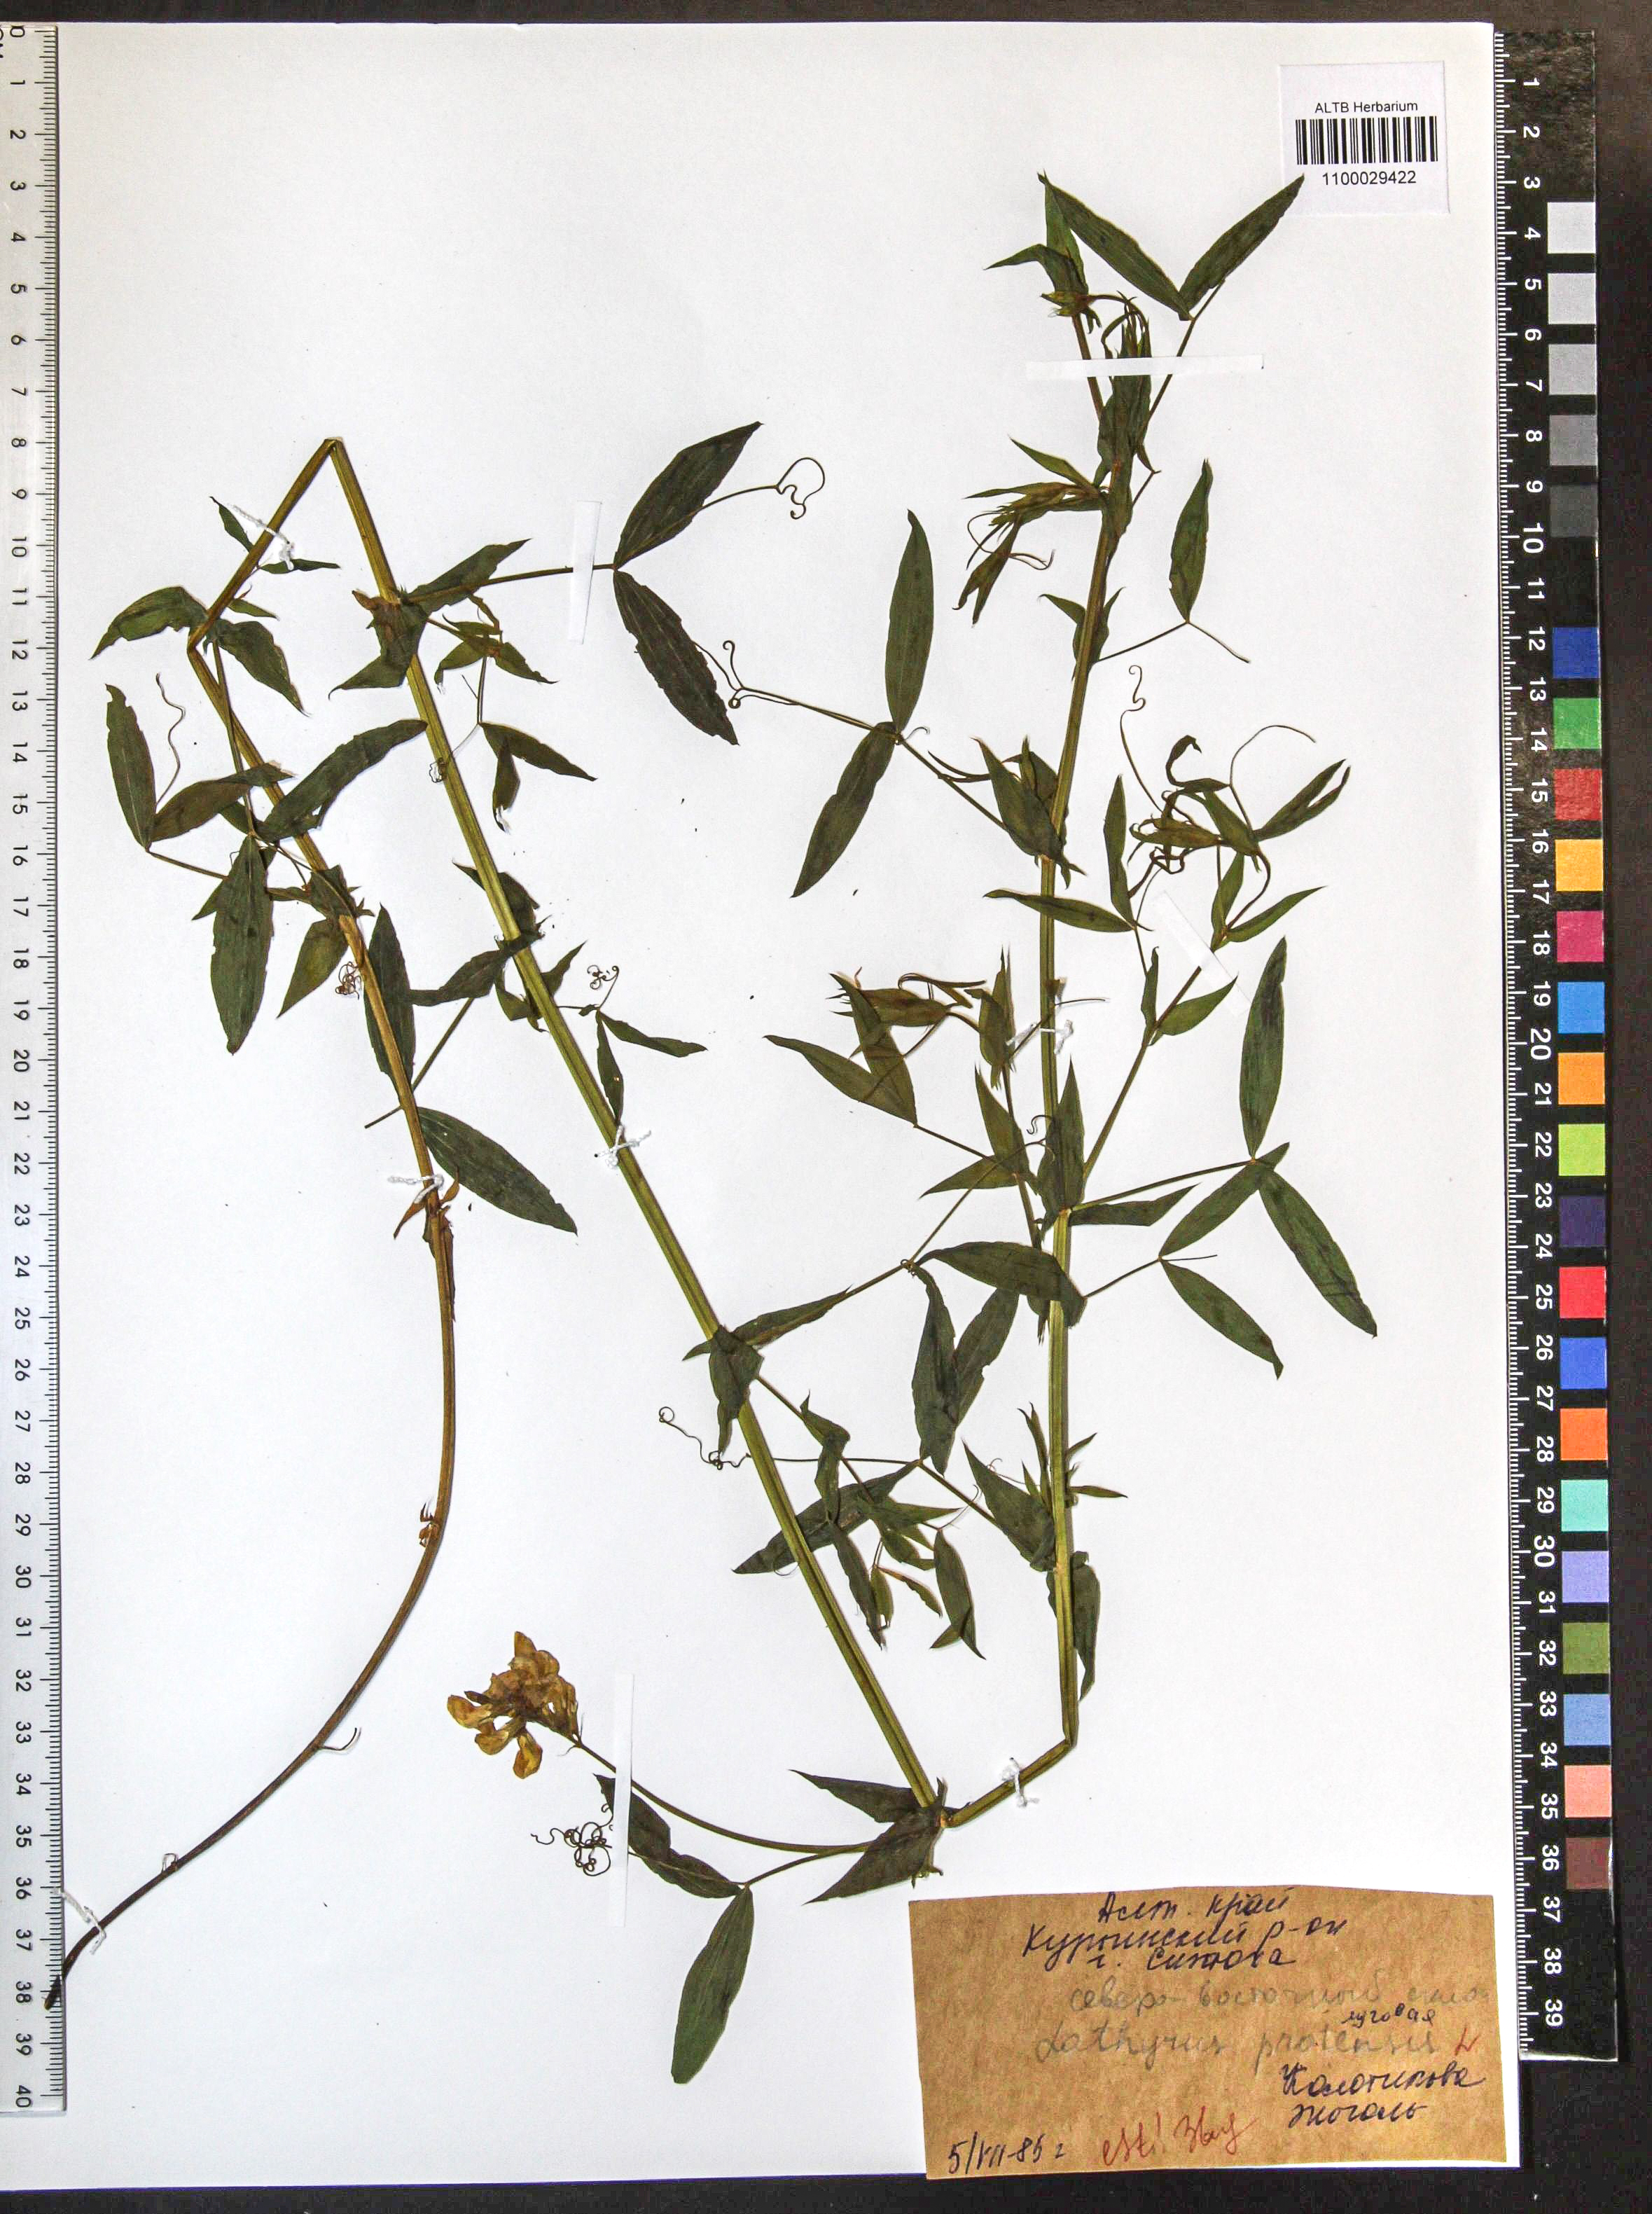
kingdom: Plantae
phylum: Tracheophyta
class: Magnoliopsida
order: Fabales
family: Fabaceae
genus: Lathyrus
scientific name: Lathyrus pratensis
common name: Meadow vetchling
